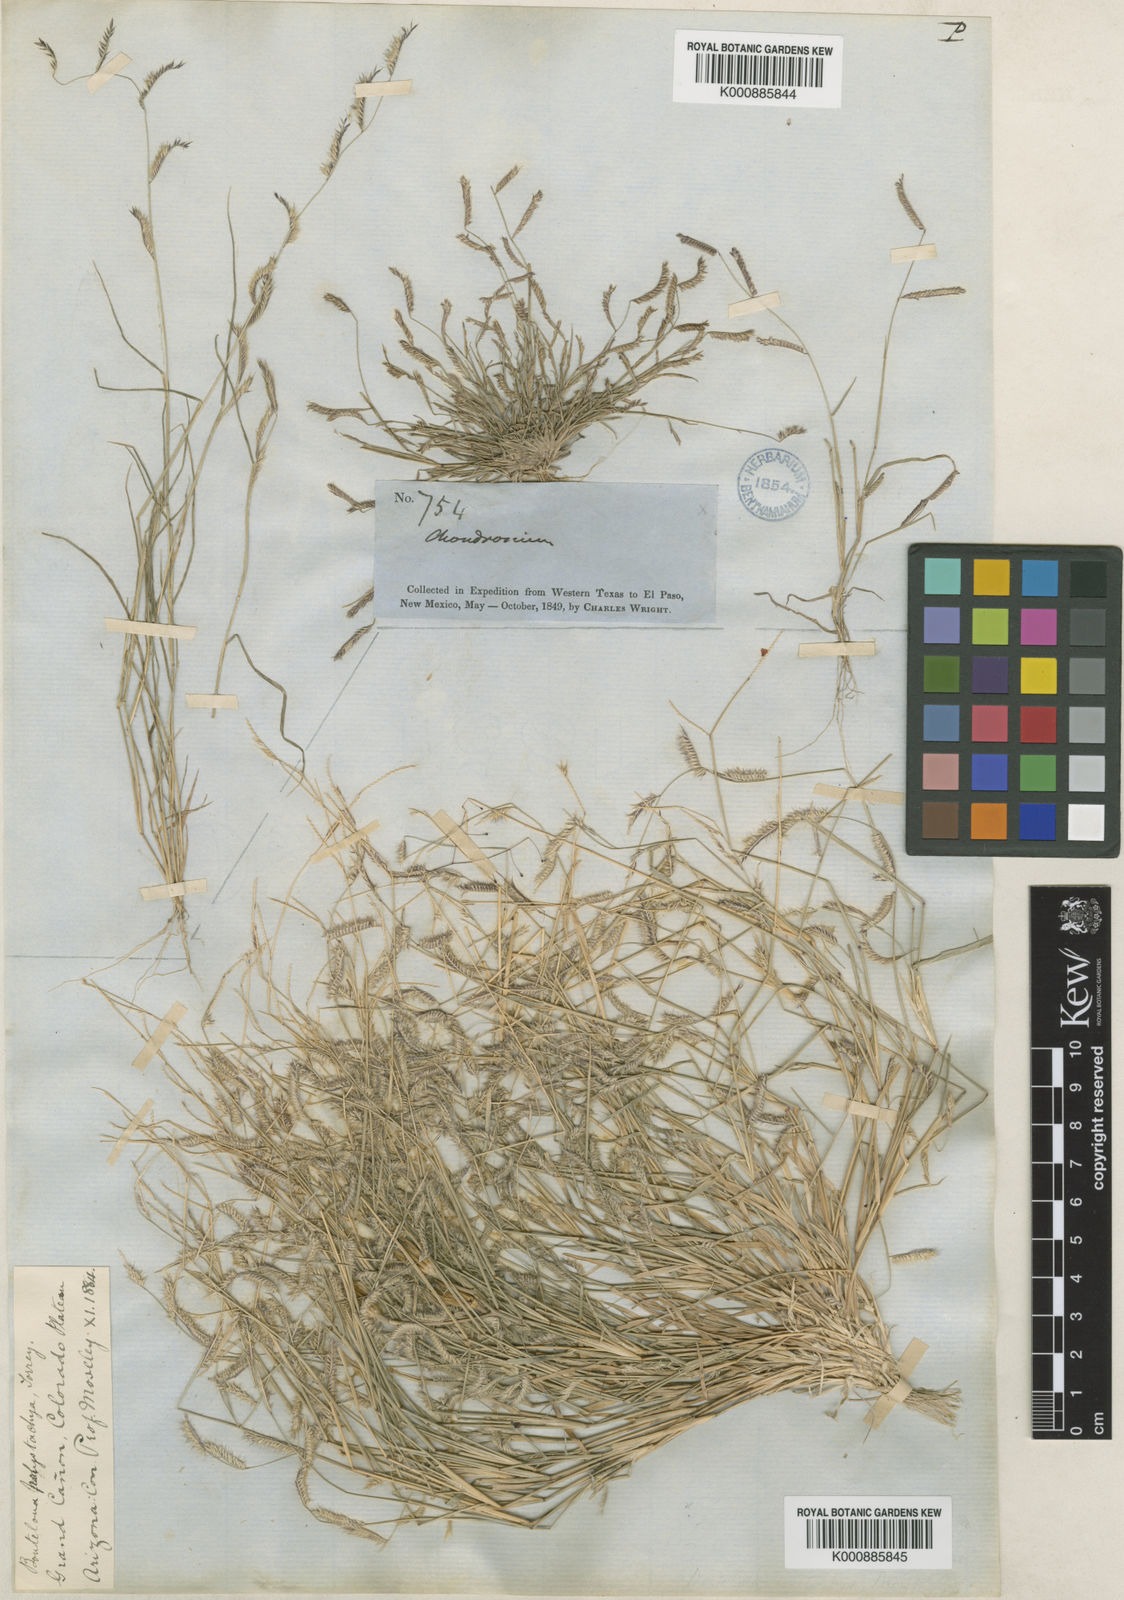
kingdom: Plantae
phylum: Tracheophyta
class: Liliopsida
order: Poales
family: Poaceae
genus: Bouteloua
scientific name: Bouteloua barbata
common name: Six-weeks grama
